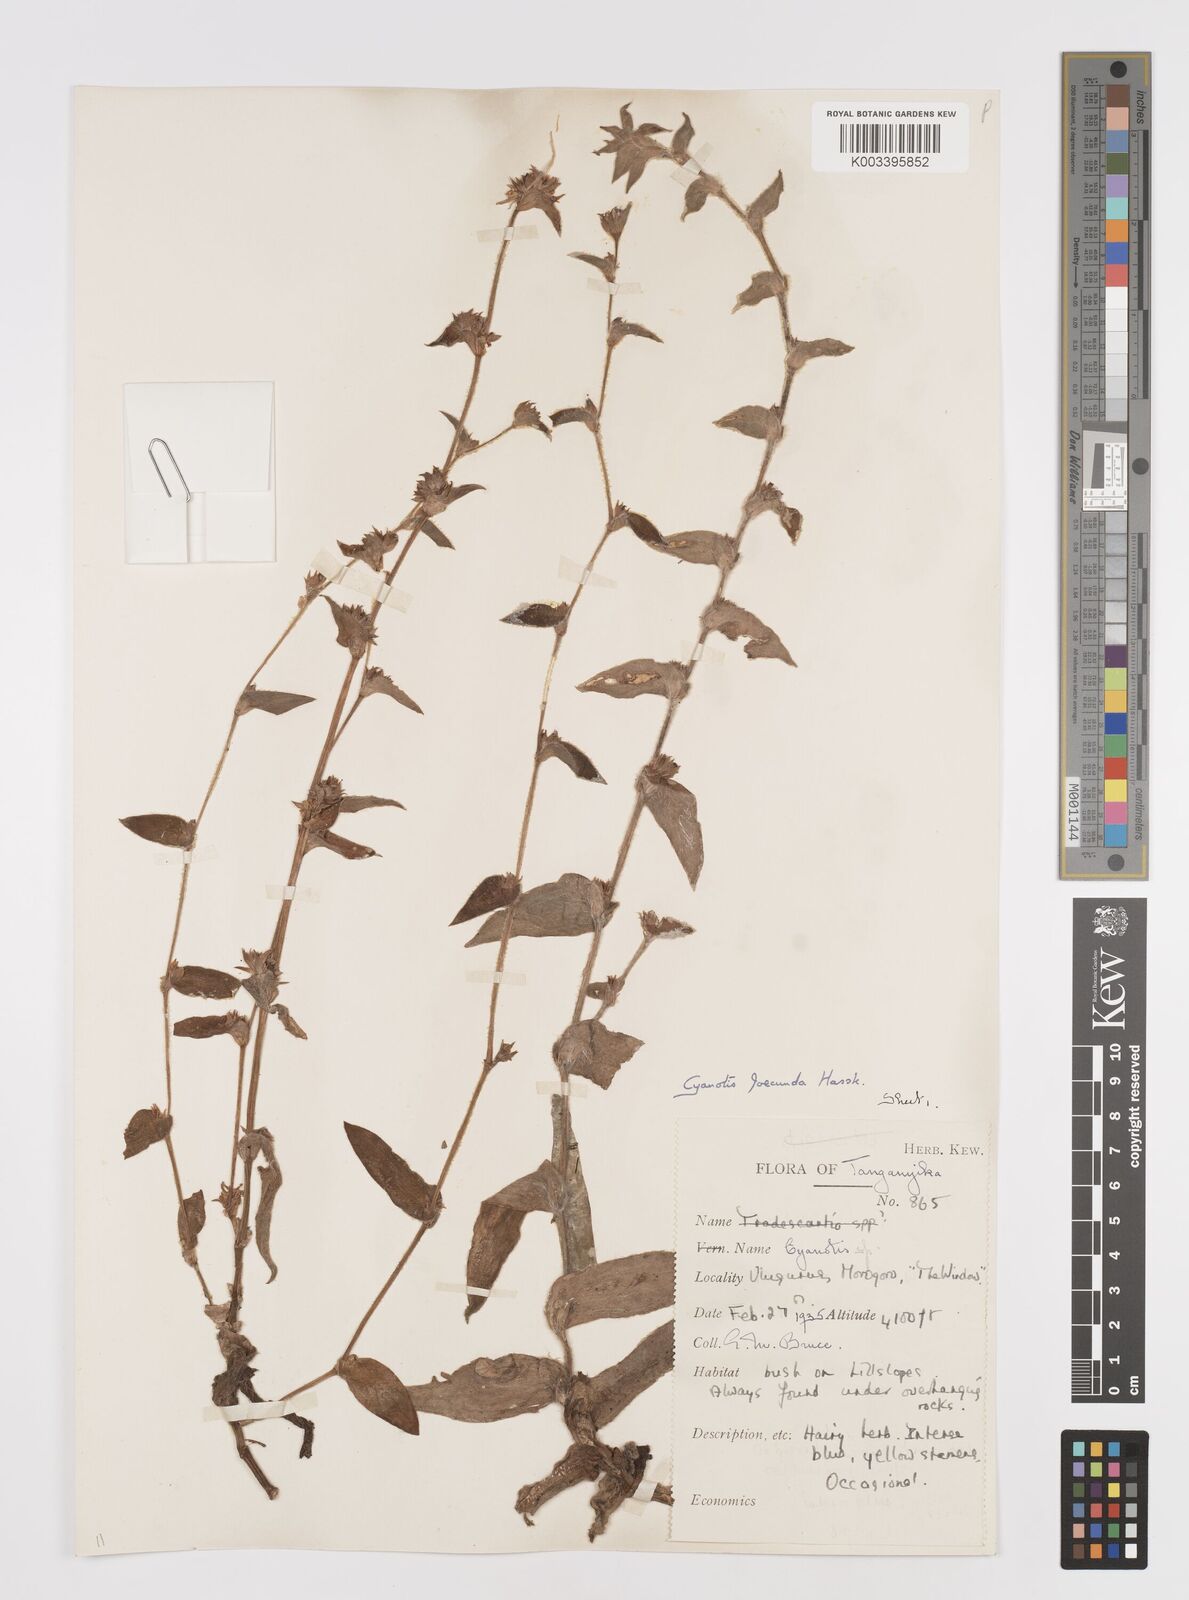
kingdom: Plantae
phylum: Tracheophyta
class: Liliopsida
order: Commelinales
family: Commelinaceae
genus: Cyanotis
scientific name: Cyanotis foecunda
